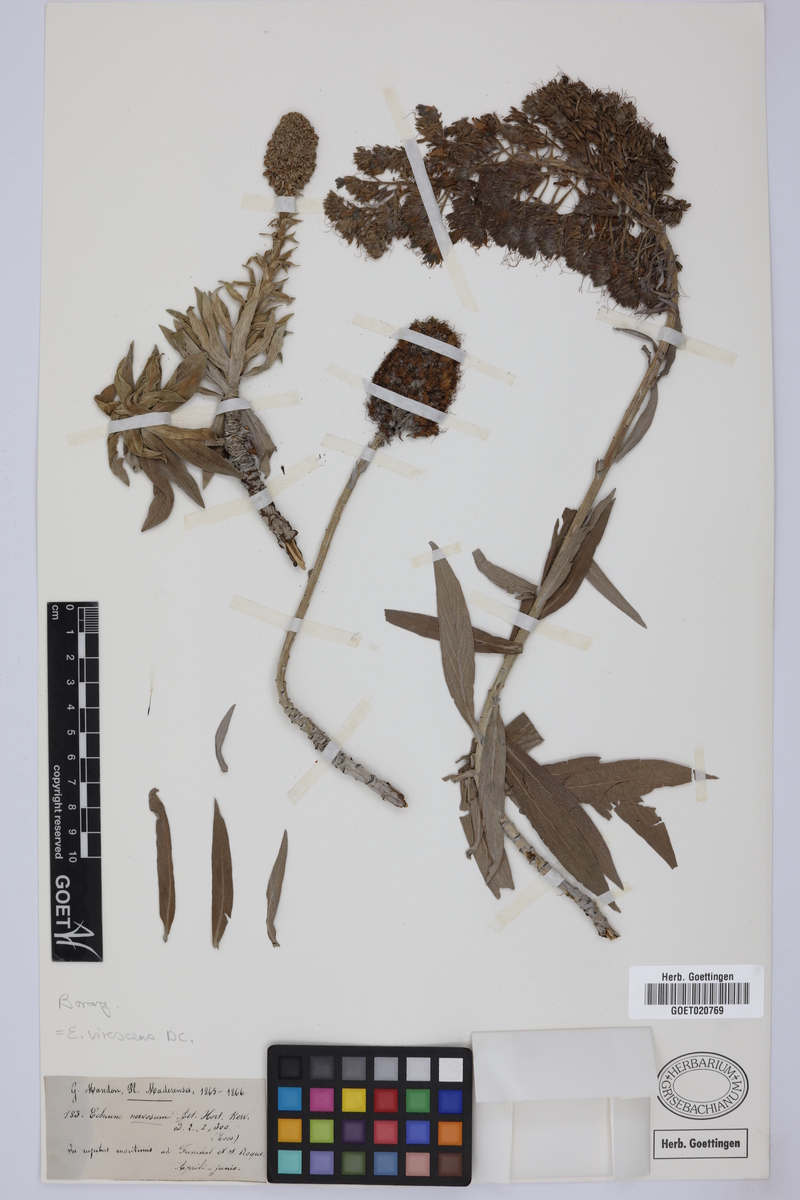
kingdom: Plantae
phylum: Tracheophyta
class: Magnoliopsida
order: Boraginales
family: Boraginaceae
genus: Echium
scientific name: Echium virescens
